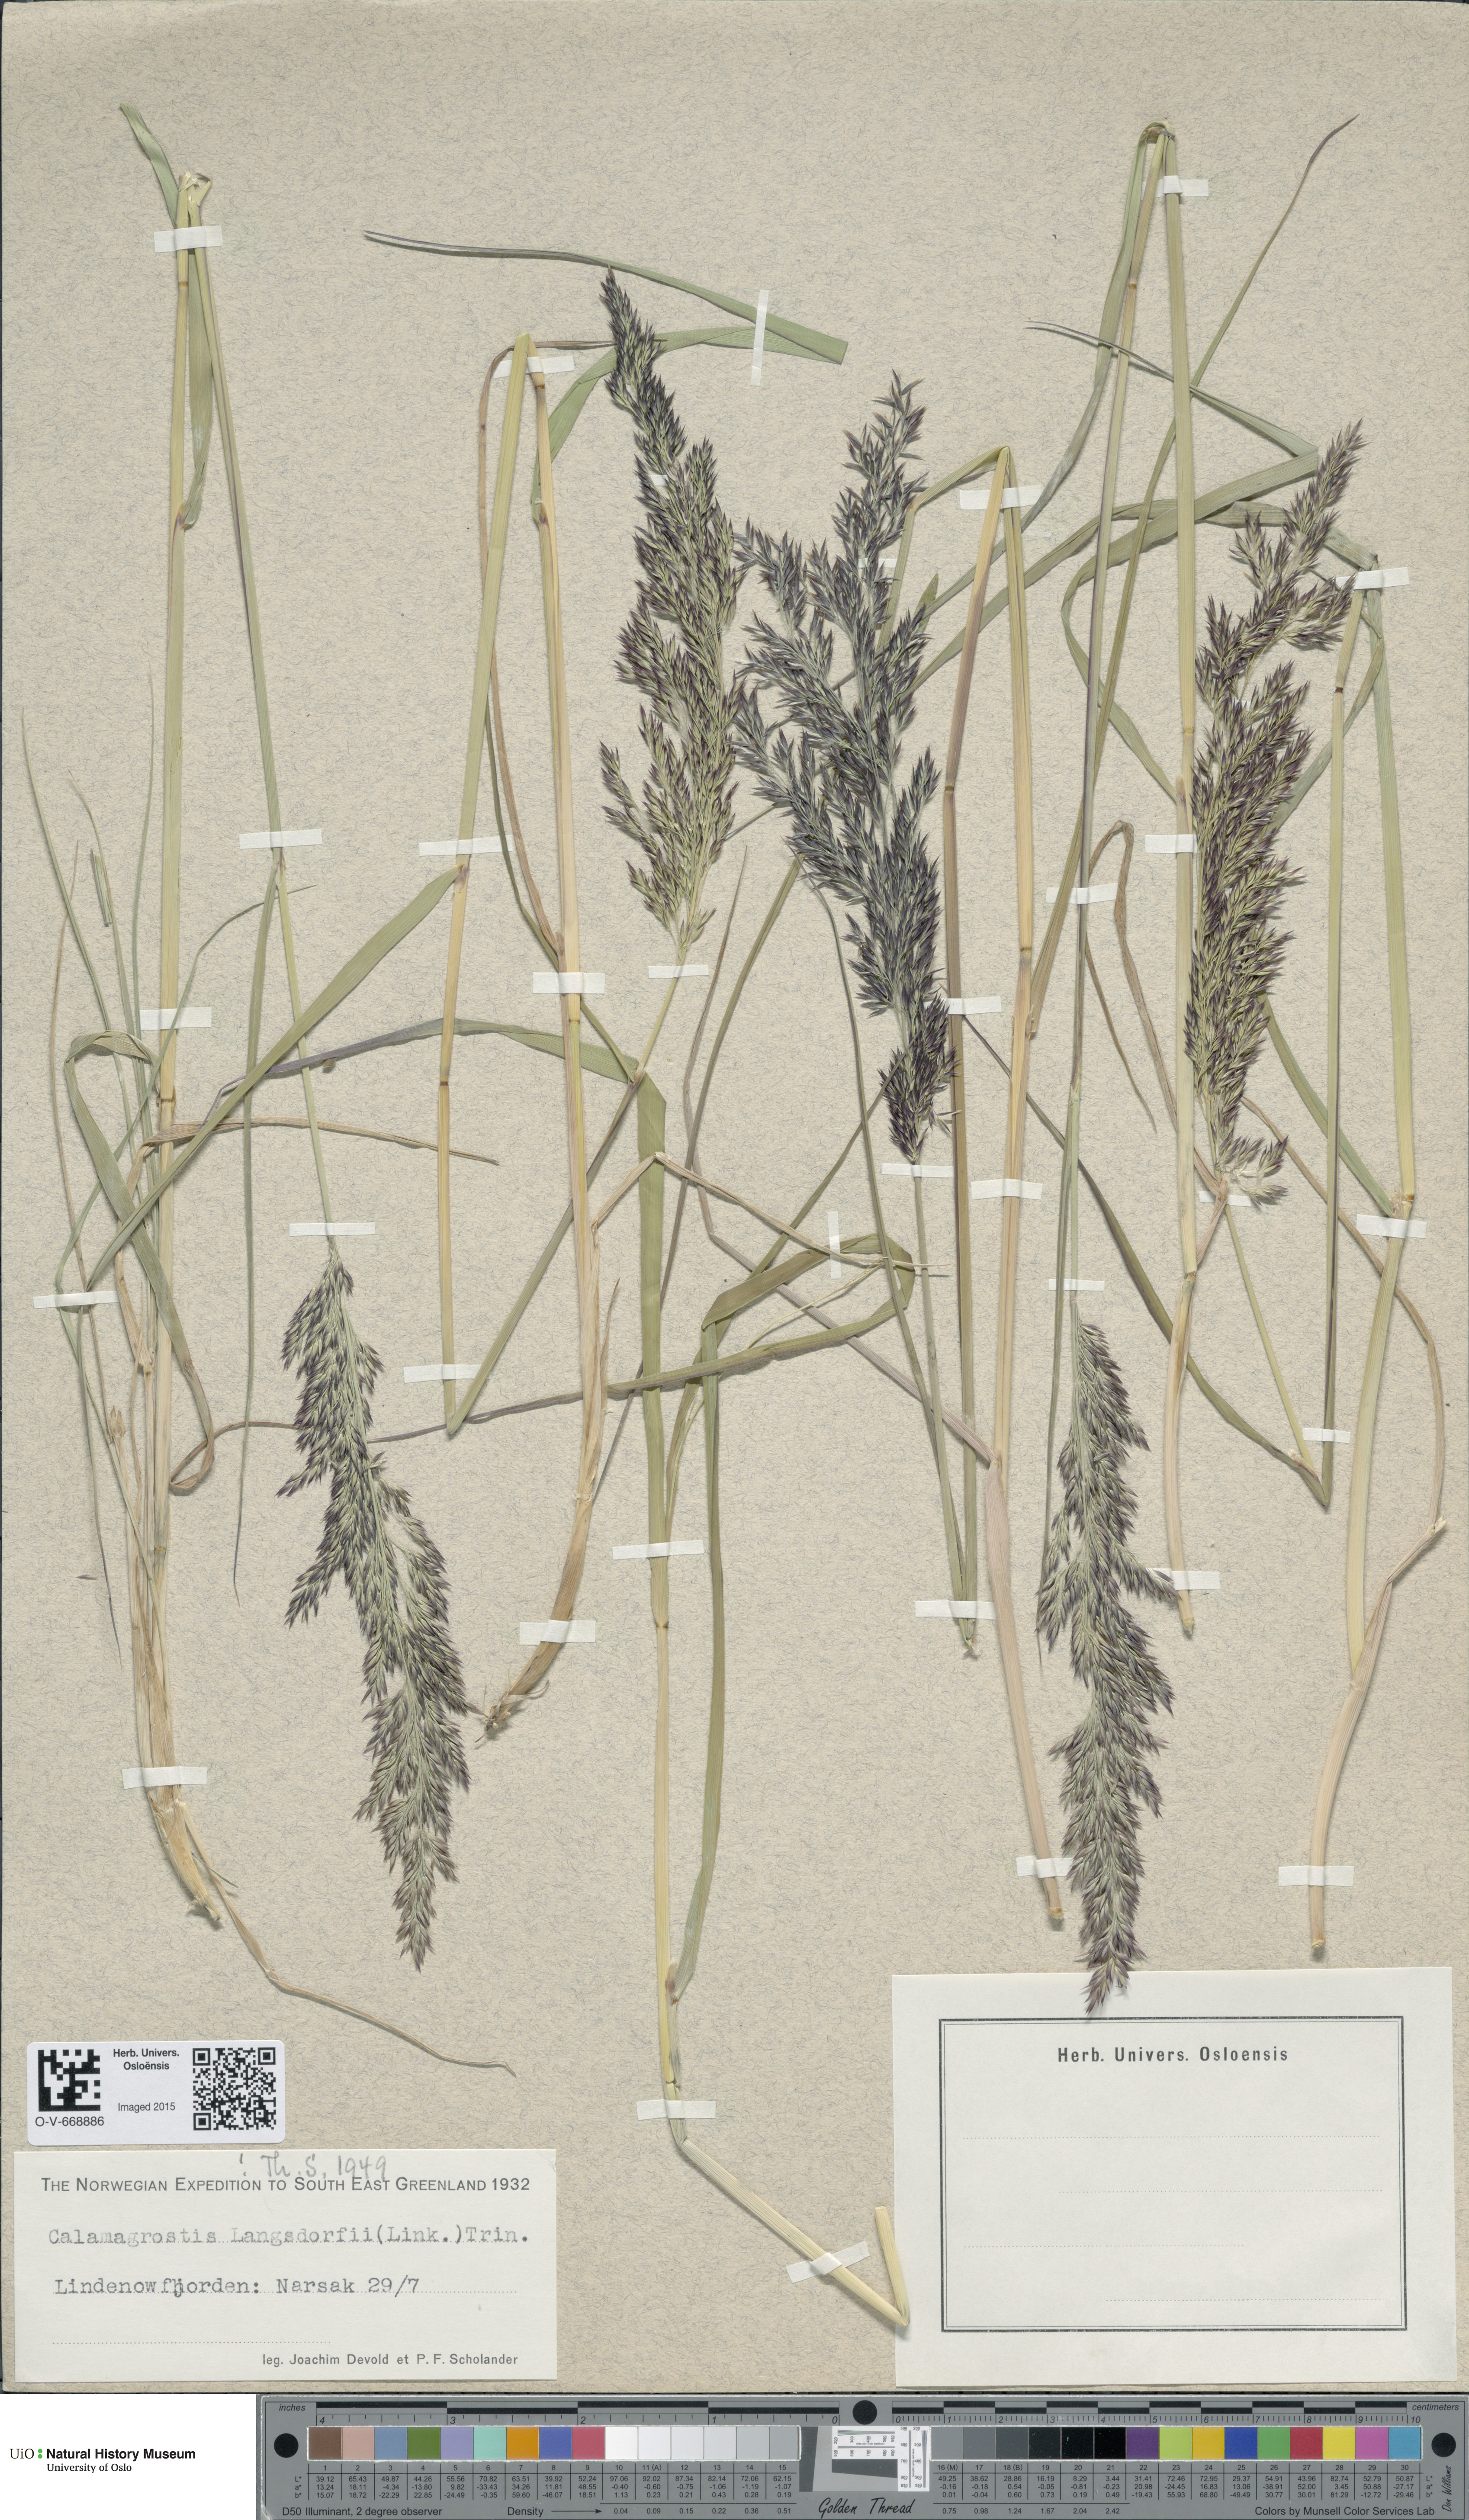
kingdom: Plantae
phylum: Tracheophyta
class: Liliopsida
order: Poales
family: Poaceae
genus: Calamagrostis
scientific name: Calamagrostis purpurea
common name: Scandinavian small-reed
